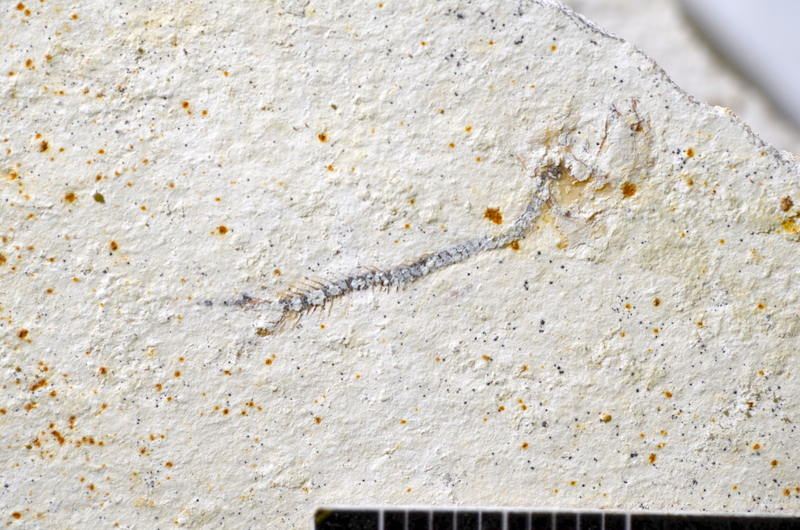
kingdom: Animalia
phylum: Chordata
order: Salmoniformes
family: Orthogonikleithridae
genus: Orthogonikleithrus
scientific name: Orthogonikleithrus hoelli
